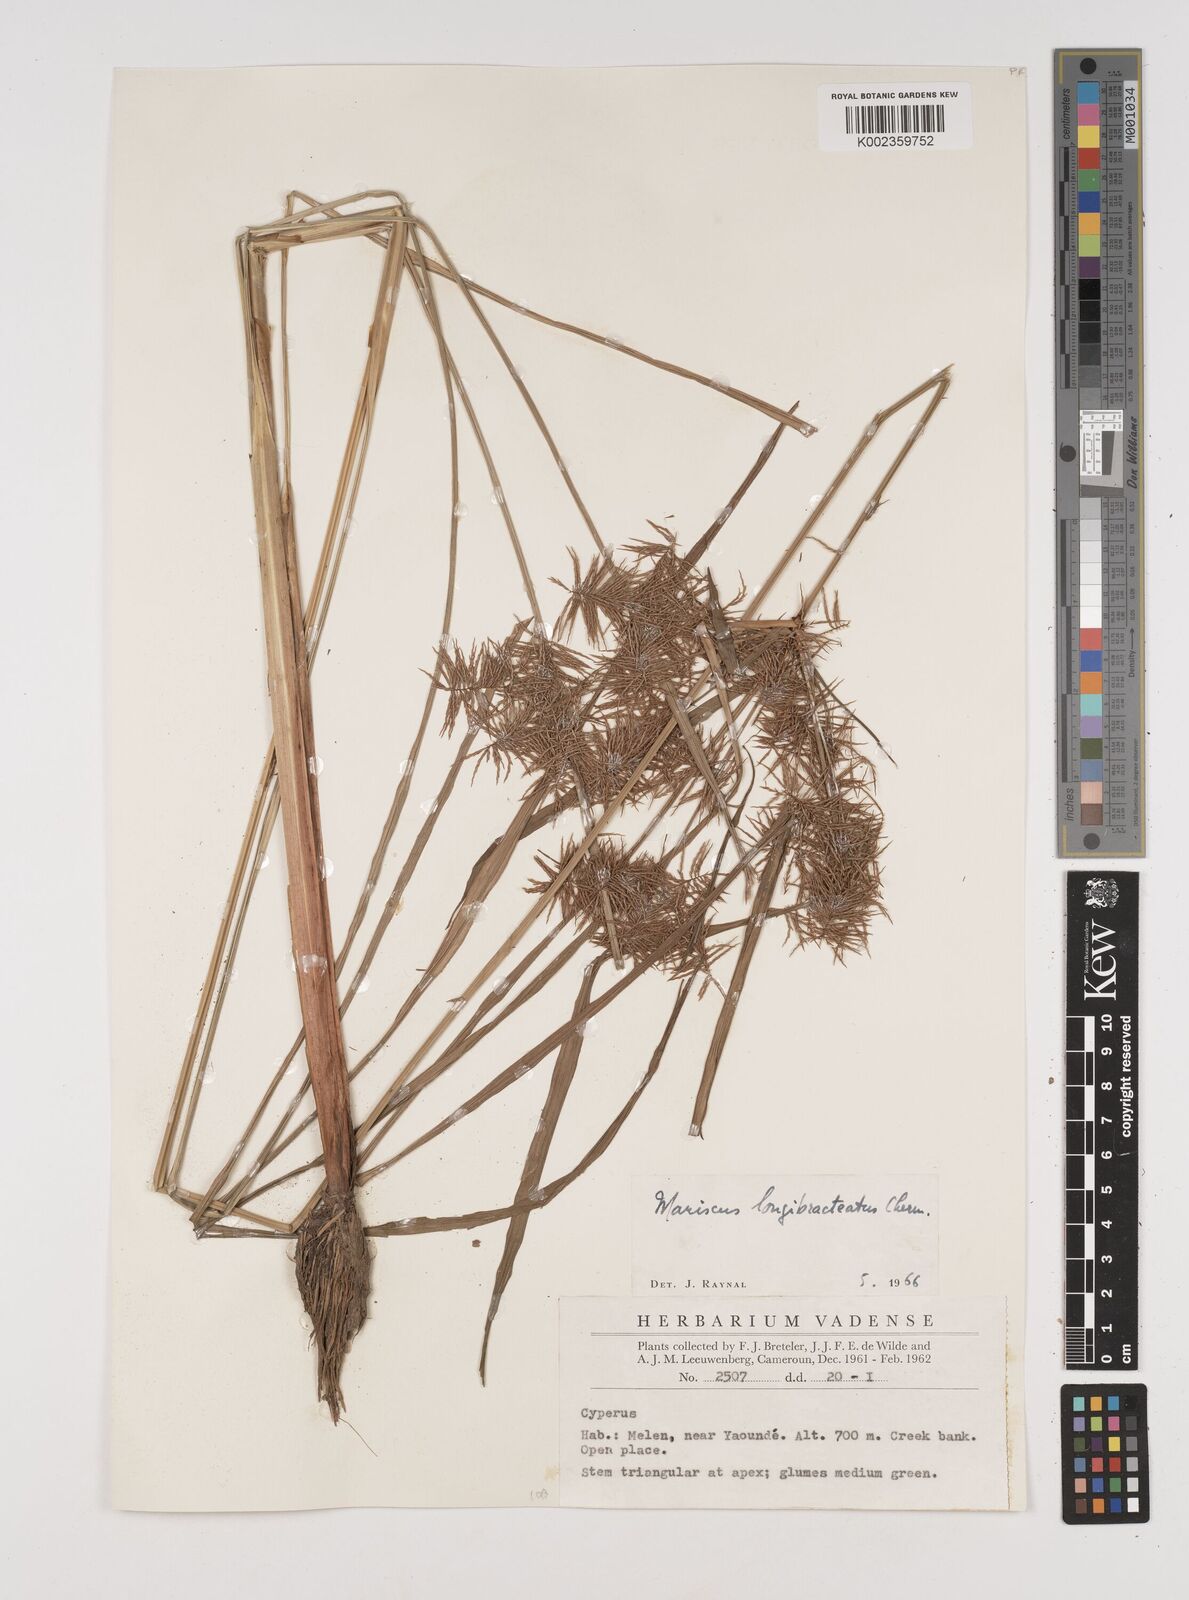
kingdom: Plantae
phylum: Tracheophyta
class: Liliopsida
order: Poales
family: Cyperaceae
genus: Cyperus
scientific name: Cyperus distans
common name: Slender cyperus
